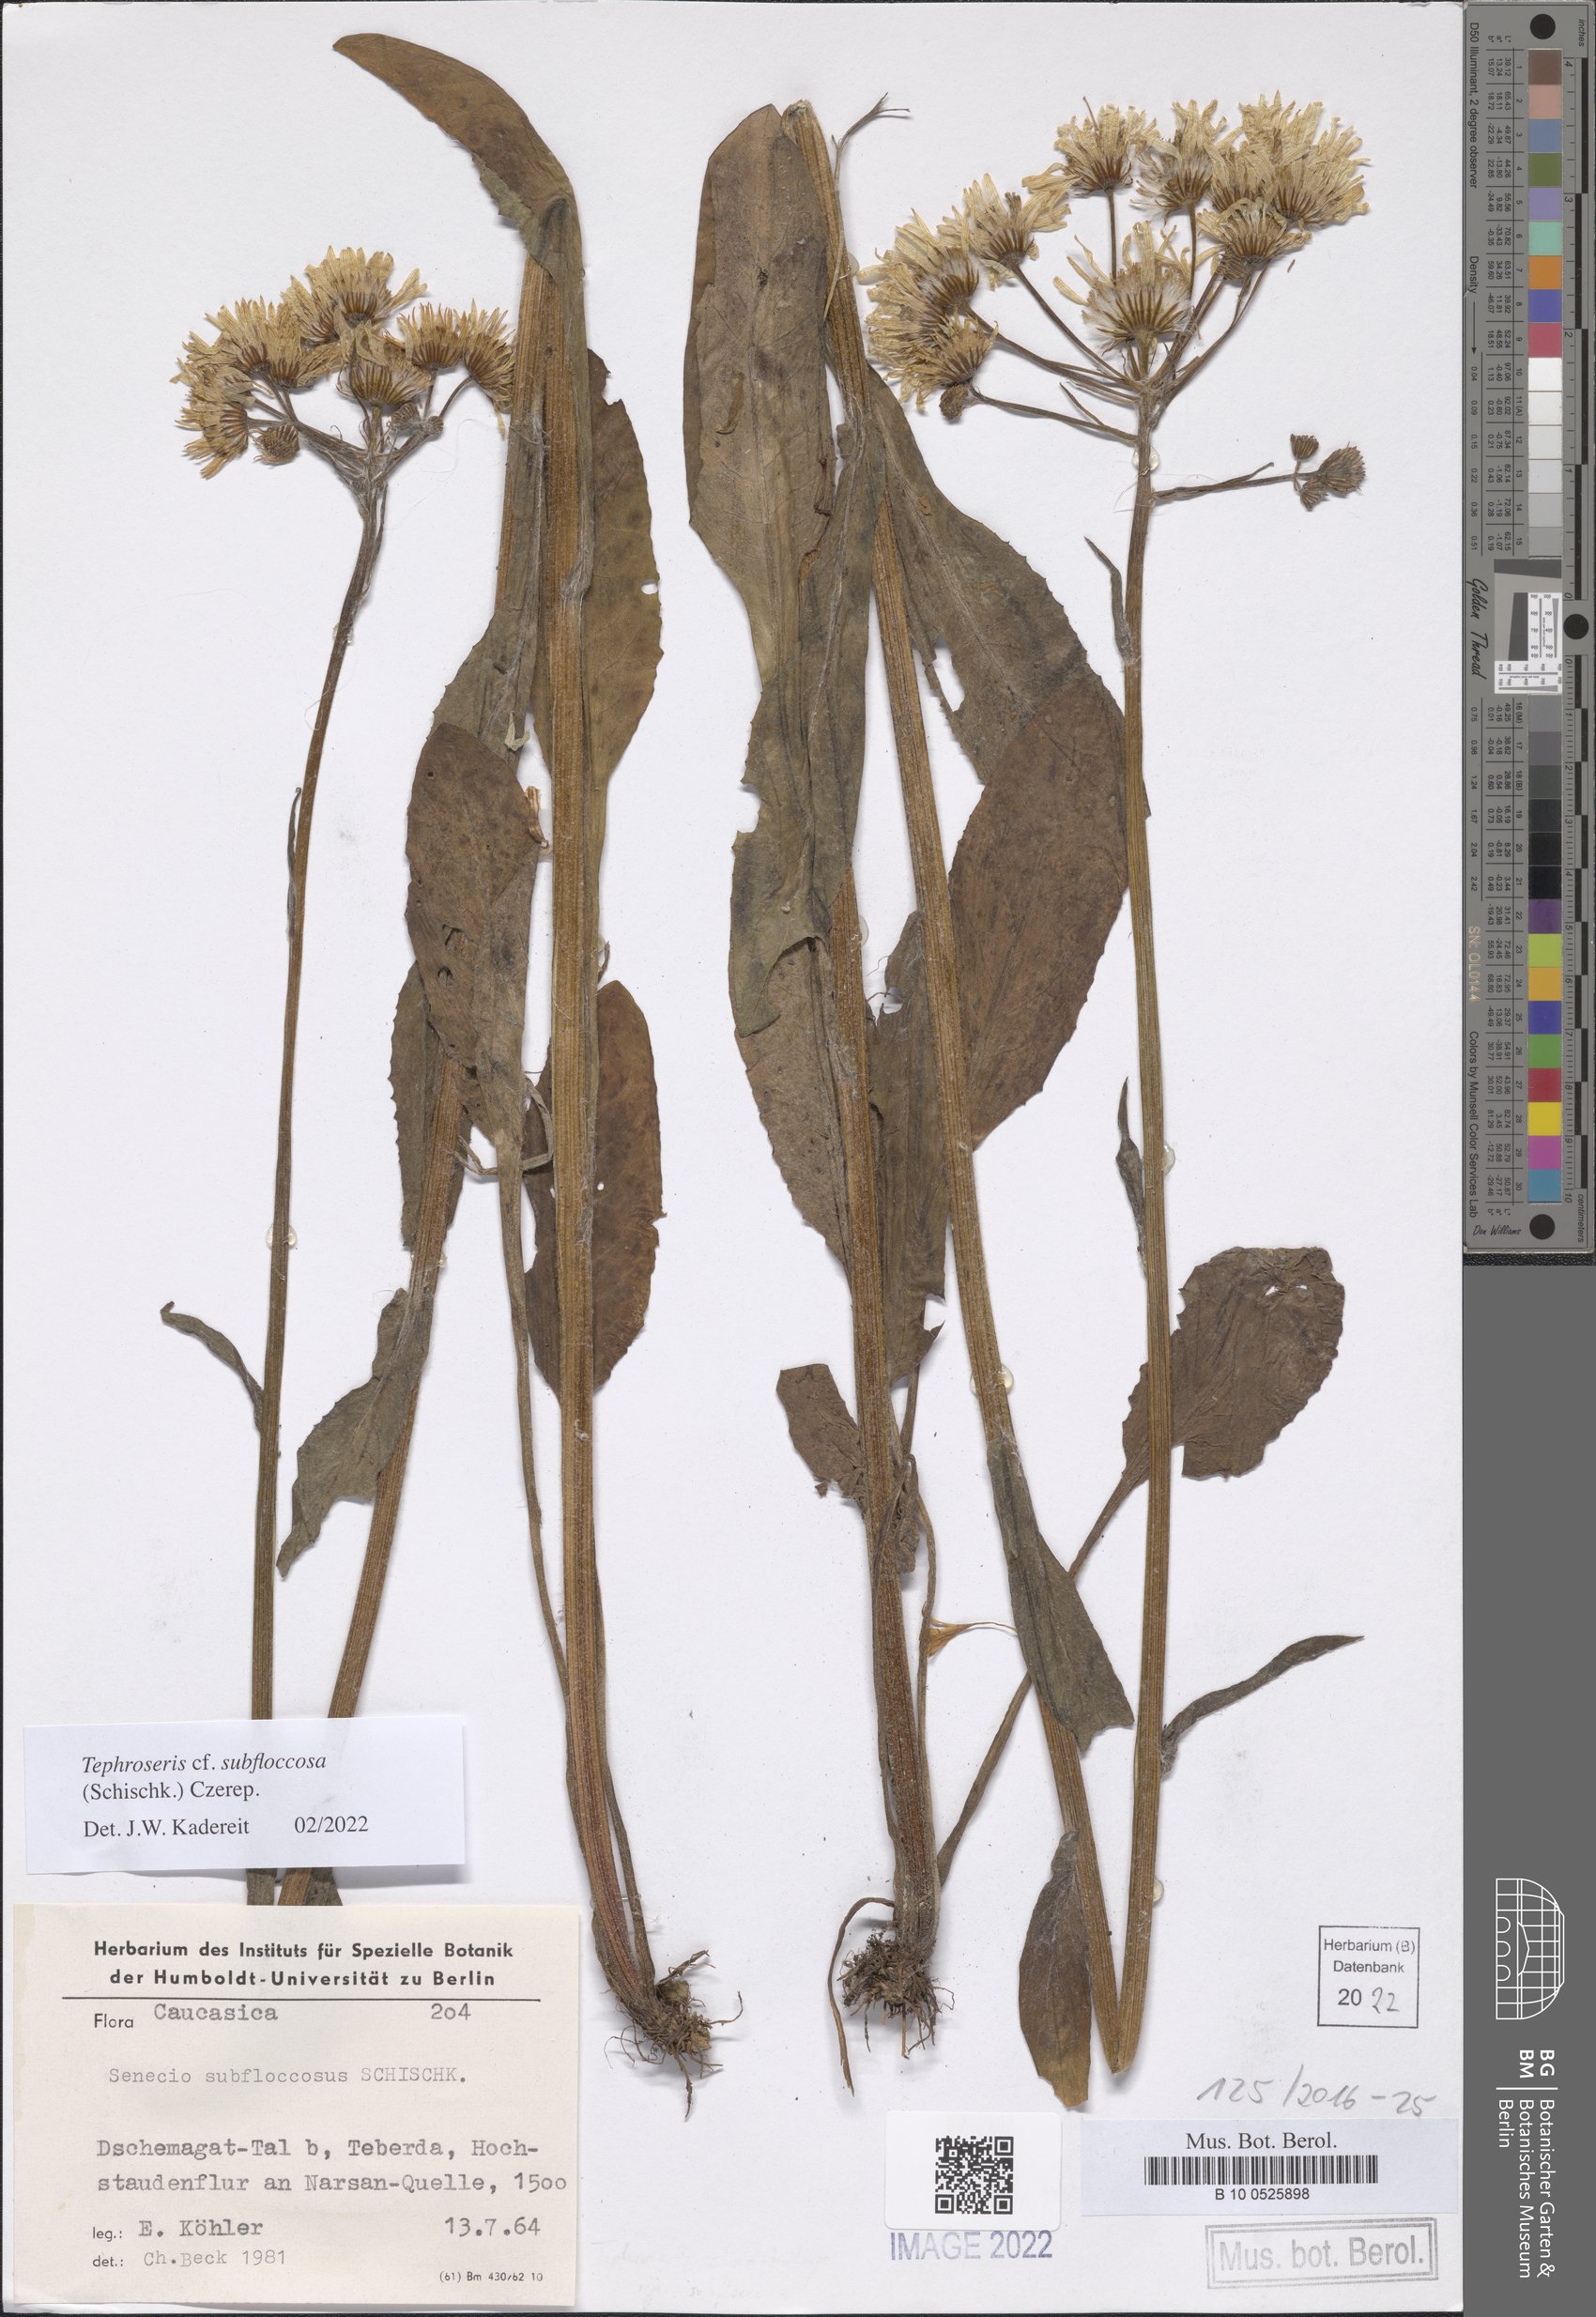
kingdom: Plantae
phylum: Tracheophyta
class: Magnoliopsida
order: Asterales
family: Asteraceae
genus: Tephroseris
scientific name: Tephroseris cladobotrys
